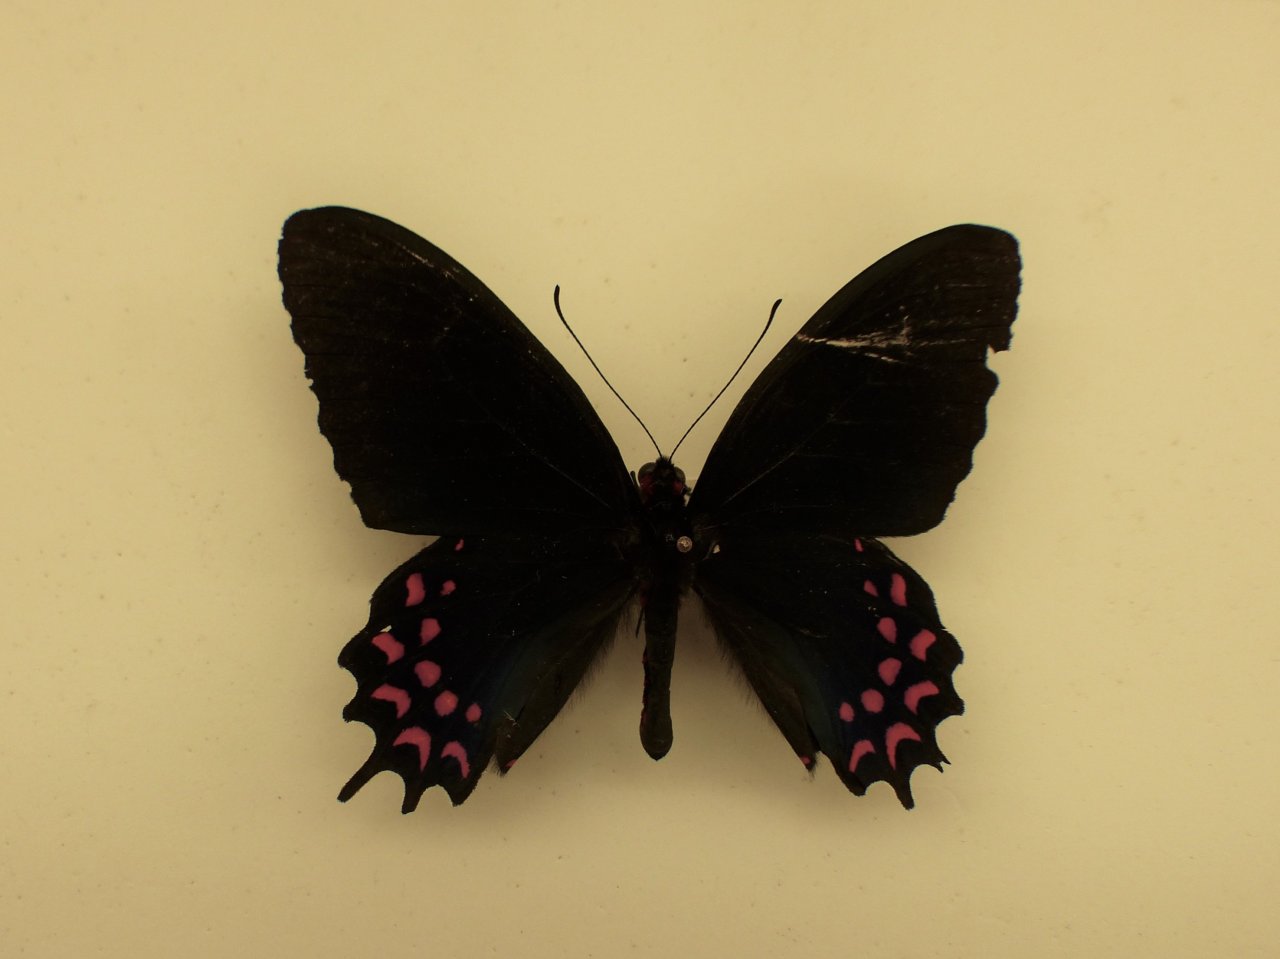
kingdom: Animalia
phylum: Arthropoda
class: Insecta
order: Lepidoptera
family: Papilionidae
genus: Parides
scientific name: Parides photinus
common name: Pink-spotted Cattleheart
